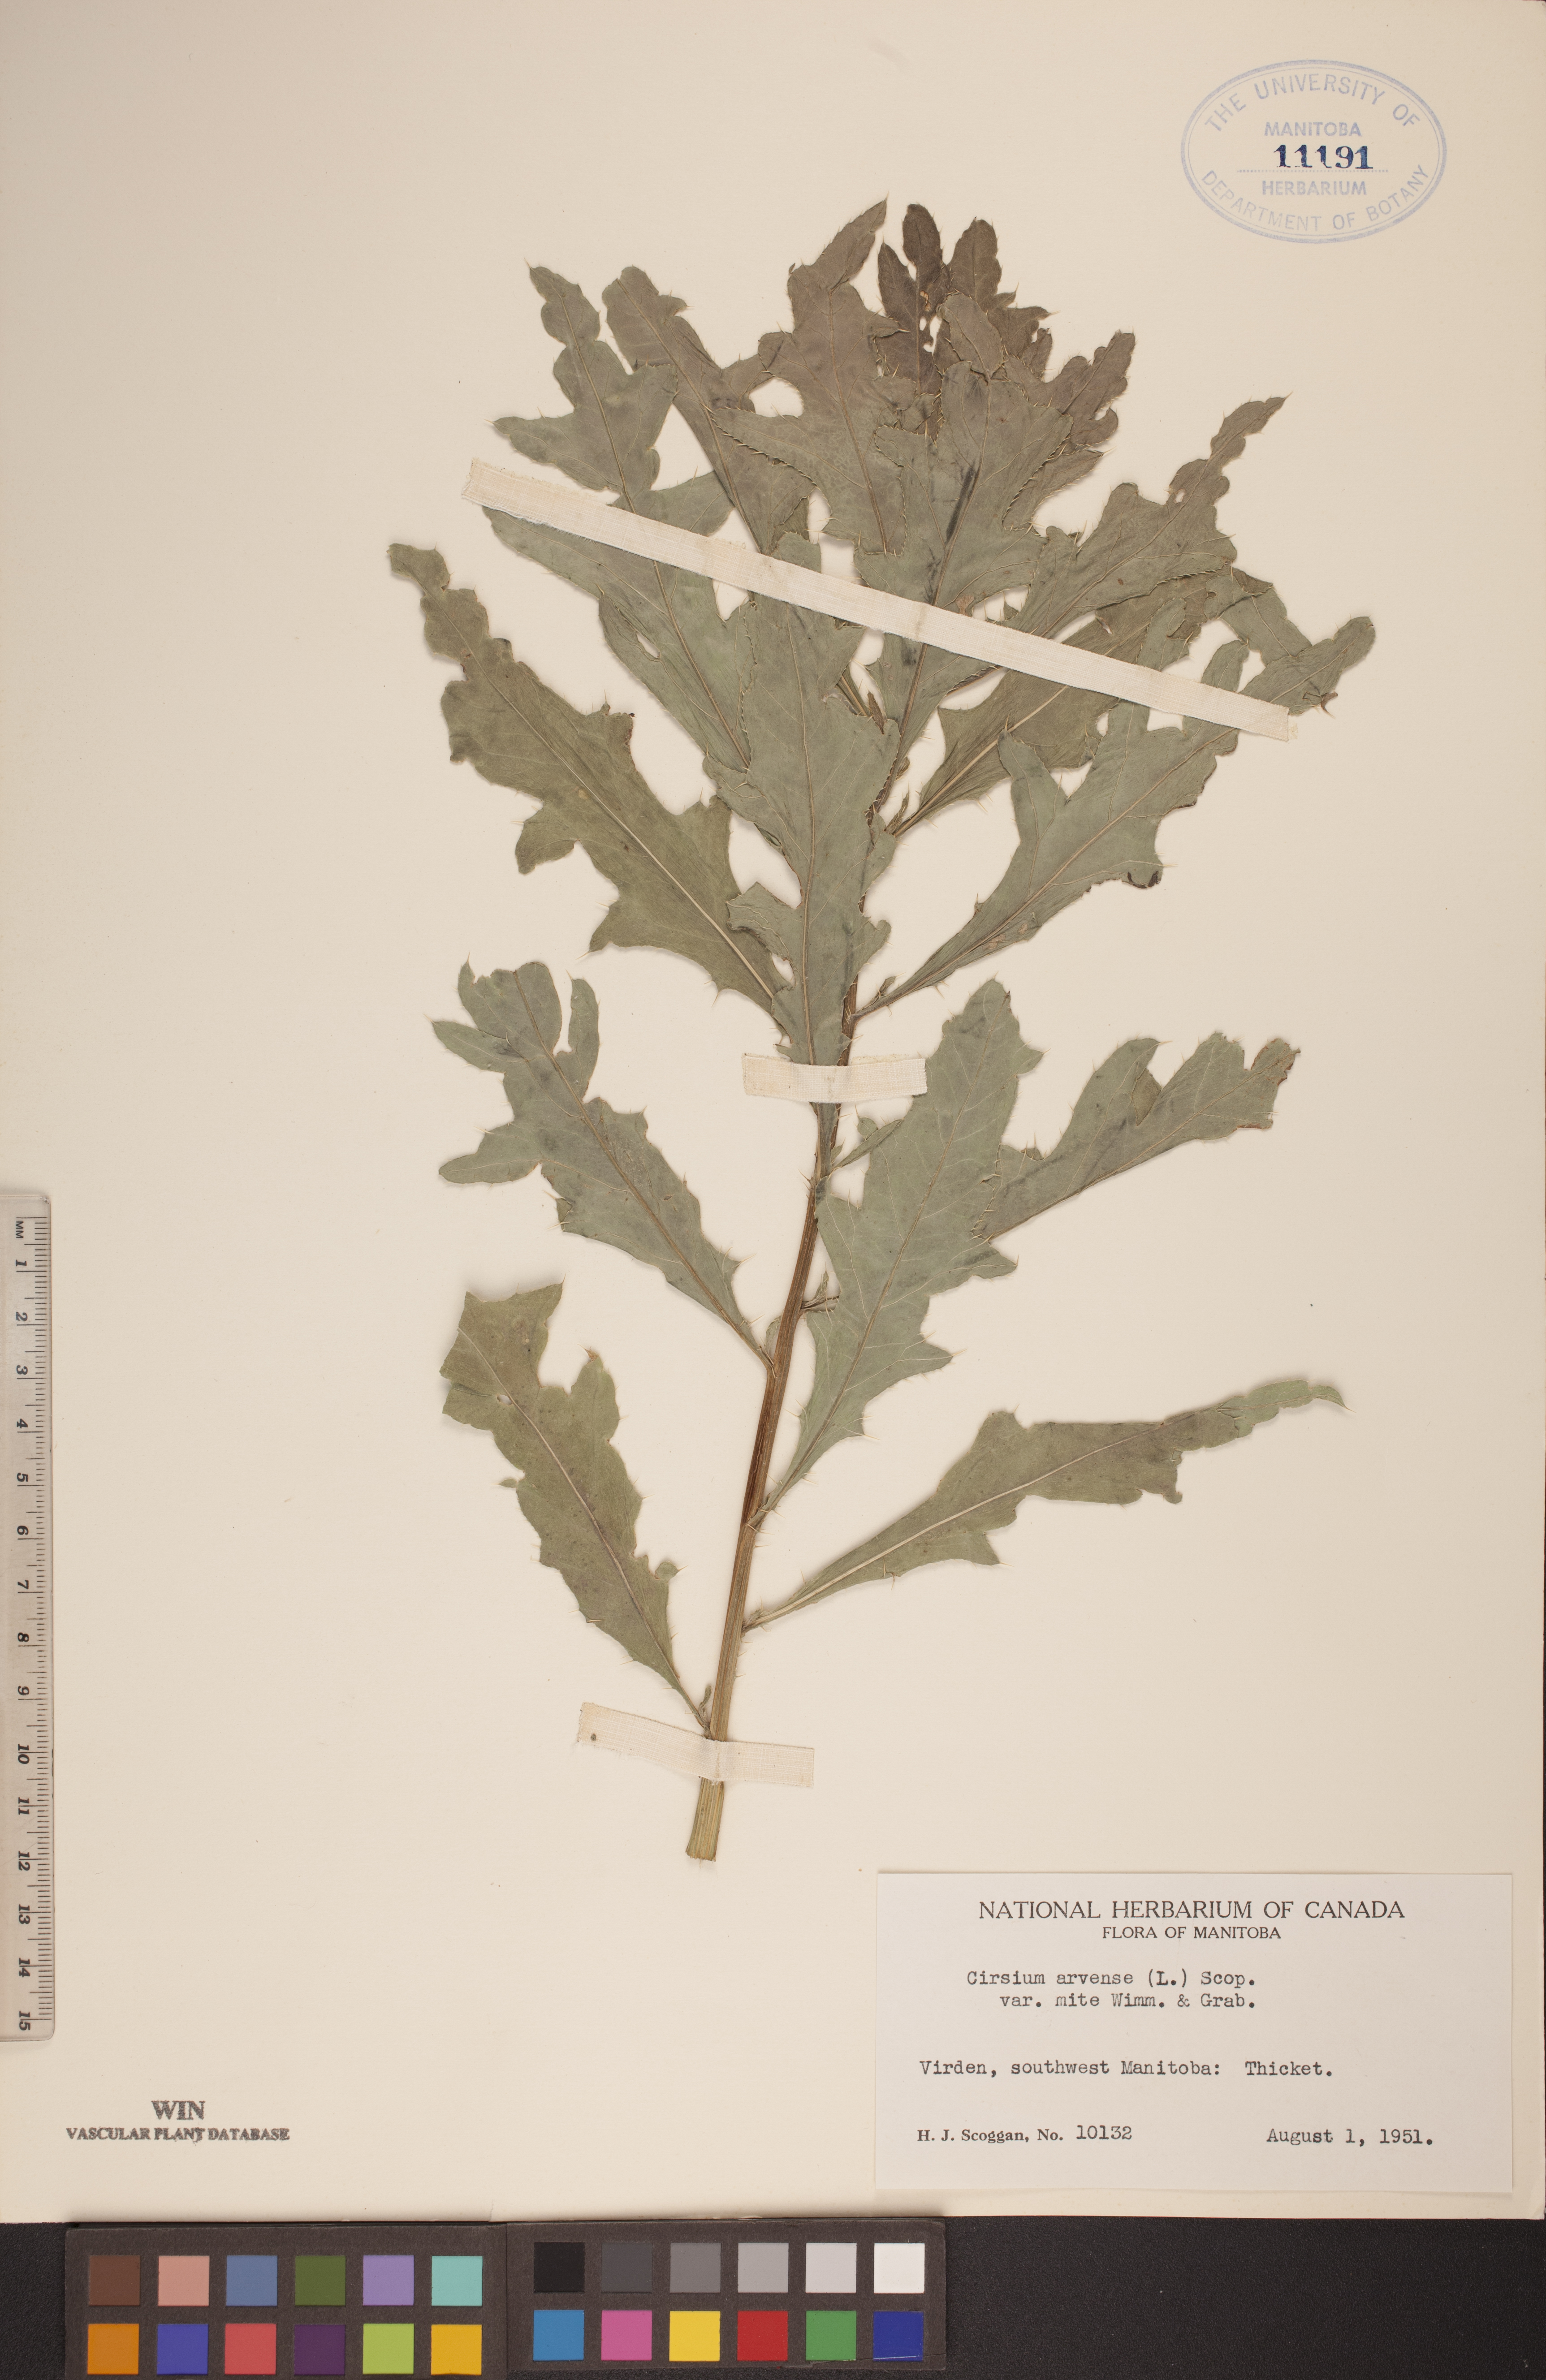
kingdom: Plantae
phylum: Tracheophyta
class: Magnoliopsida
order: Asterales
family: Asteraceae
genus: Cirsium
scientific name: Cirsium arvense
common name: Creeping thistle
